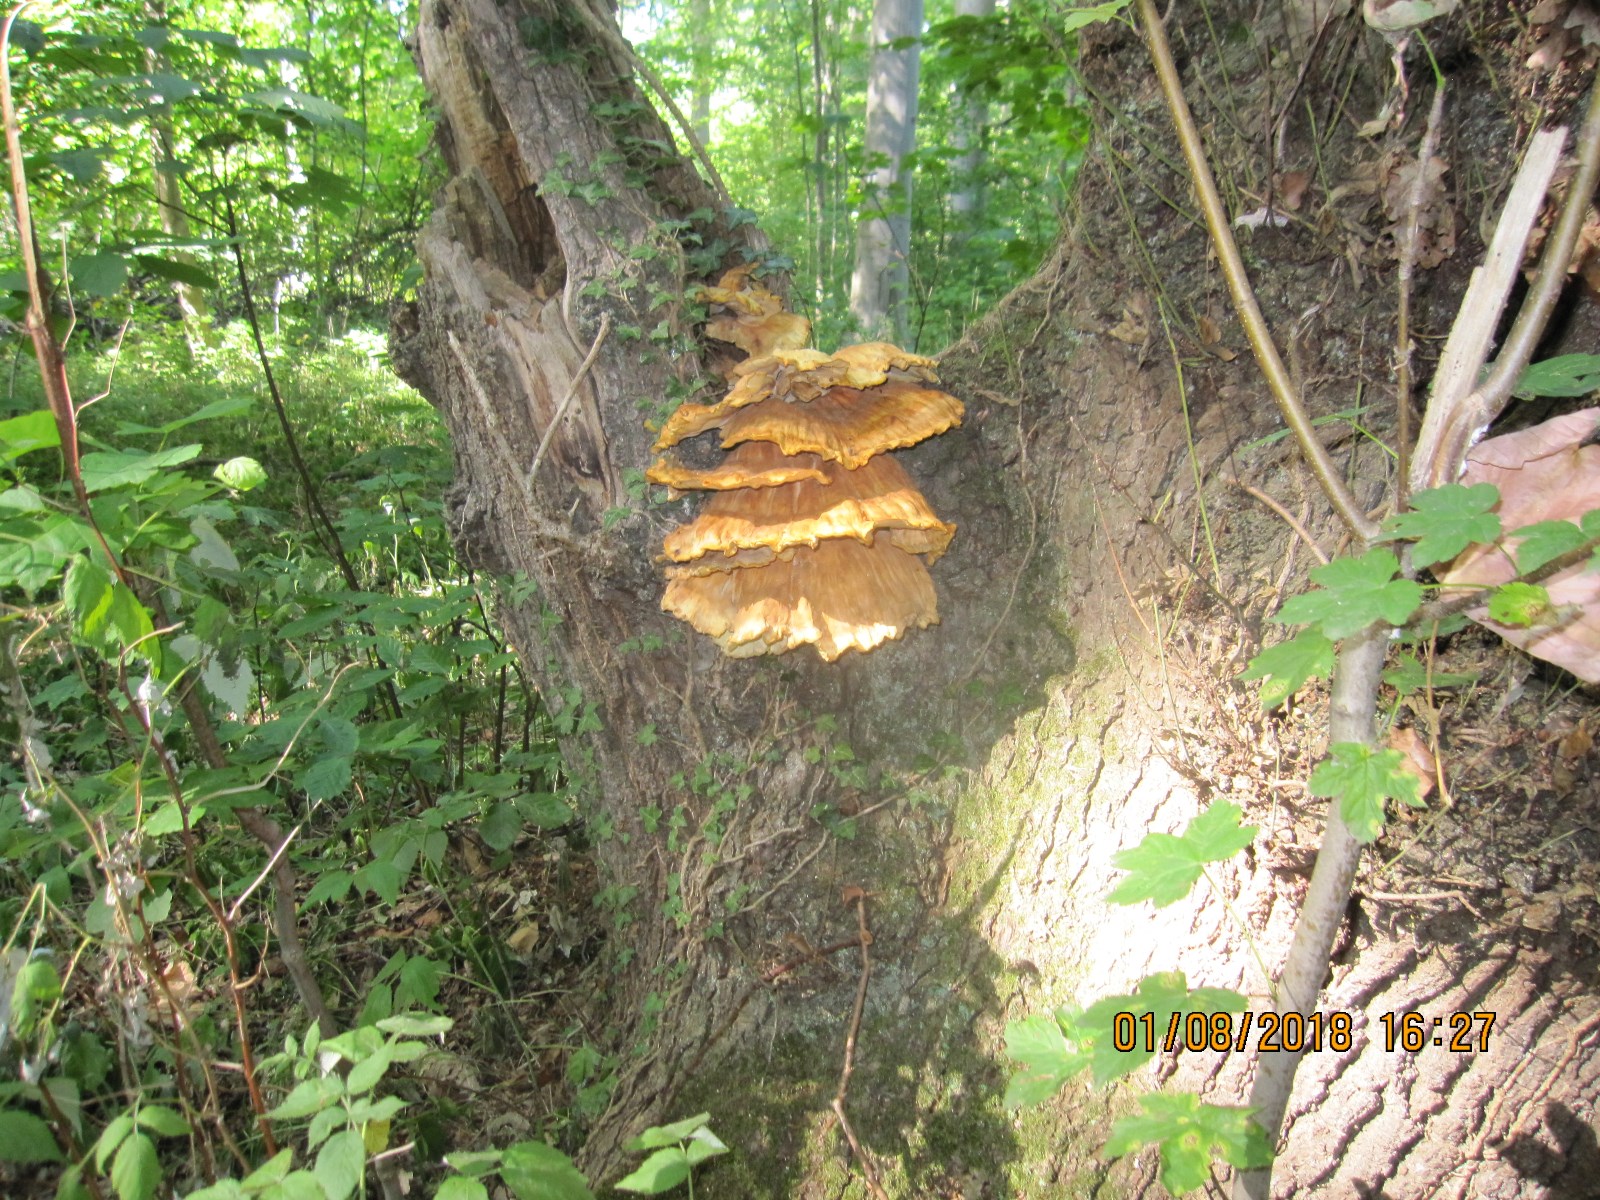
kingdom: Fungi
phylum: Basidiomycota
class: Agaricomycetes
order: Polyporales
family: Laetiporaceae
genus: Laetiporus
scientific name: Laetiporus sulphureus
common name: svovlporesvamp
